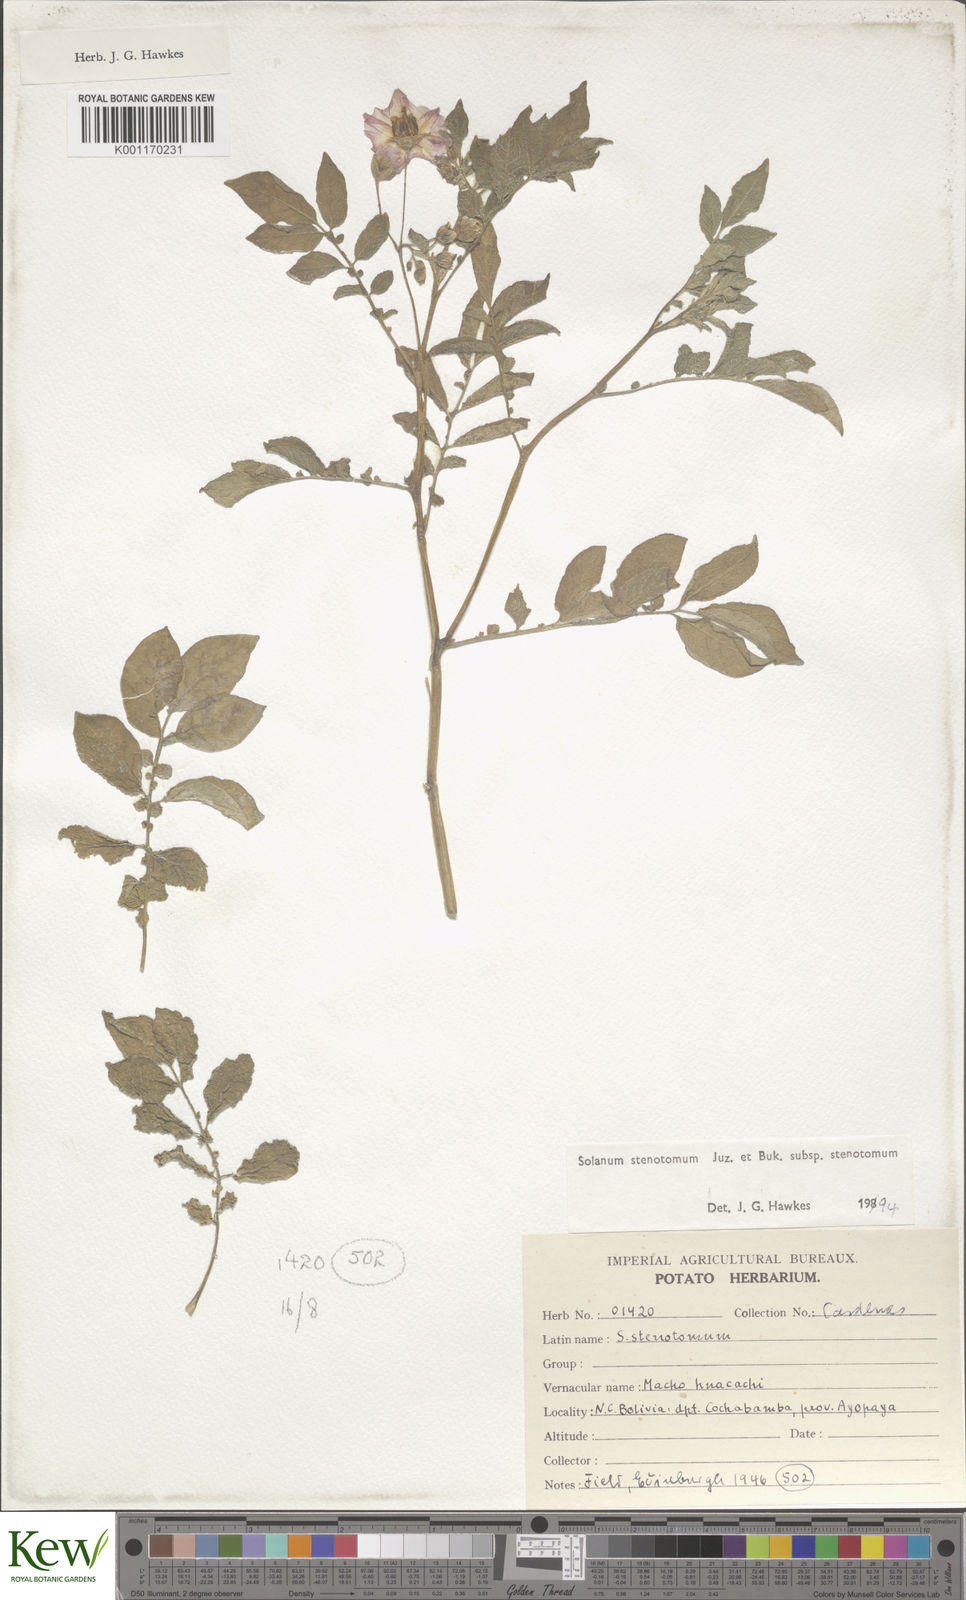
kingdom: Plantae
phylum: Tracheophyta
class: Magnoliopsida
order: Solanales
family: Solanaceae
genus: Solanum
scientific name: Solanum tuberosum
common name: Potato
